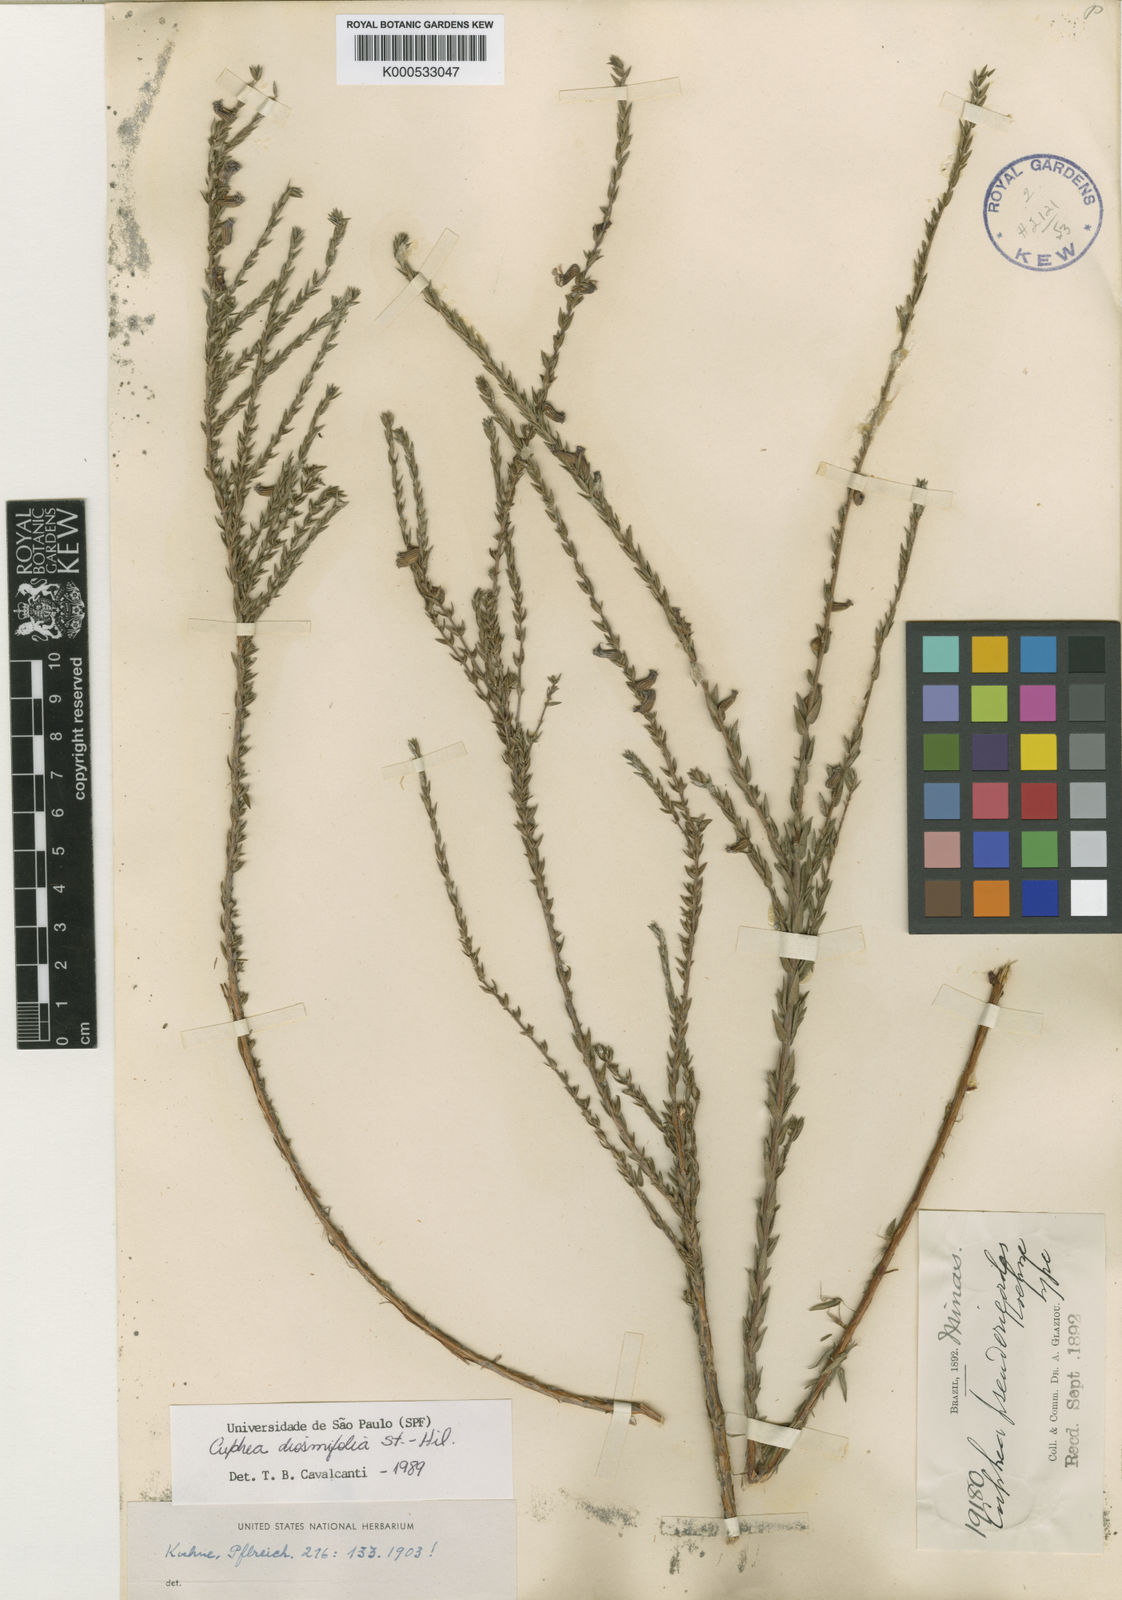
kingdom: Plantae
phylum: Tracheophyta
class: Magnoliopsida
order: Myrtales
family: Lythraceae
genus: Cuphea
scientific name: Cuphea diosmifolia
